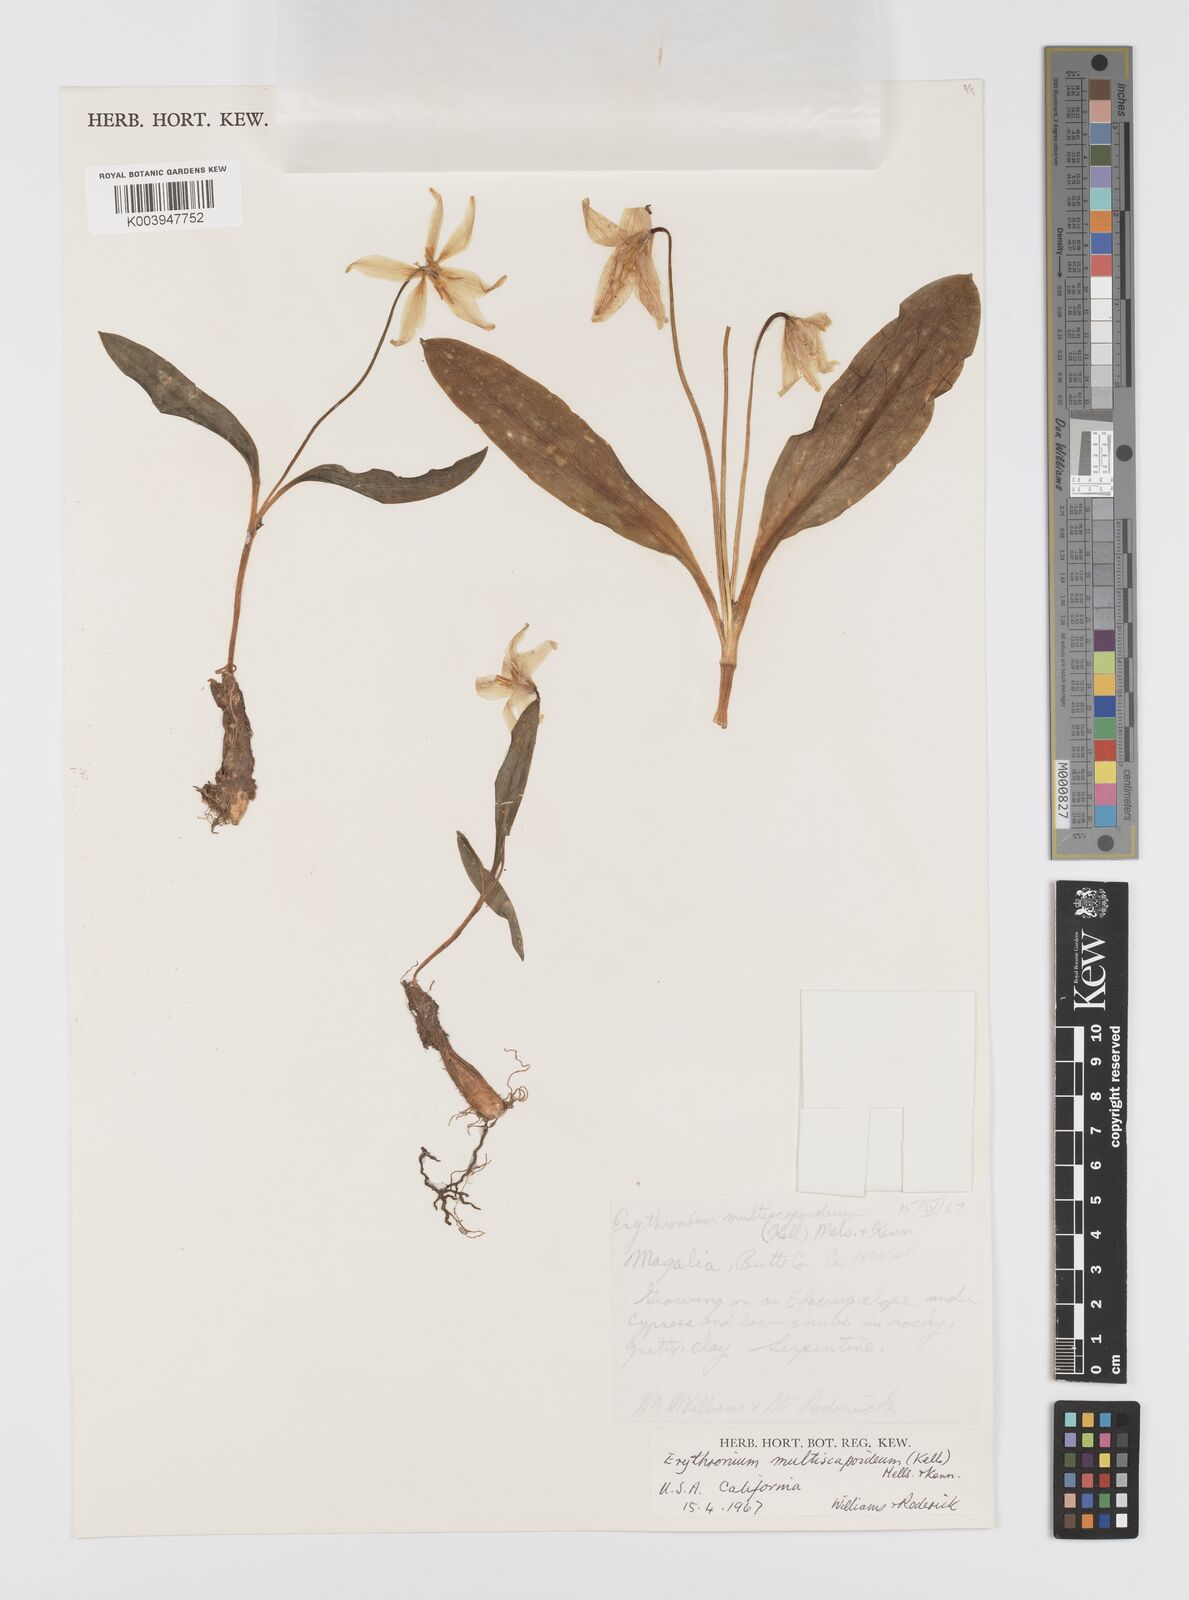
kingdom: Plantae
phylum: Tracheophyta
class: Liliopsida
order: Liliales
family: Liliaceae
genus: Erythronium
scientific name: Erythronium multiscapideum
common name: Sierra foothills fawn-lily
